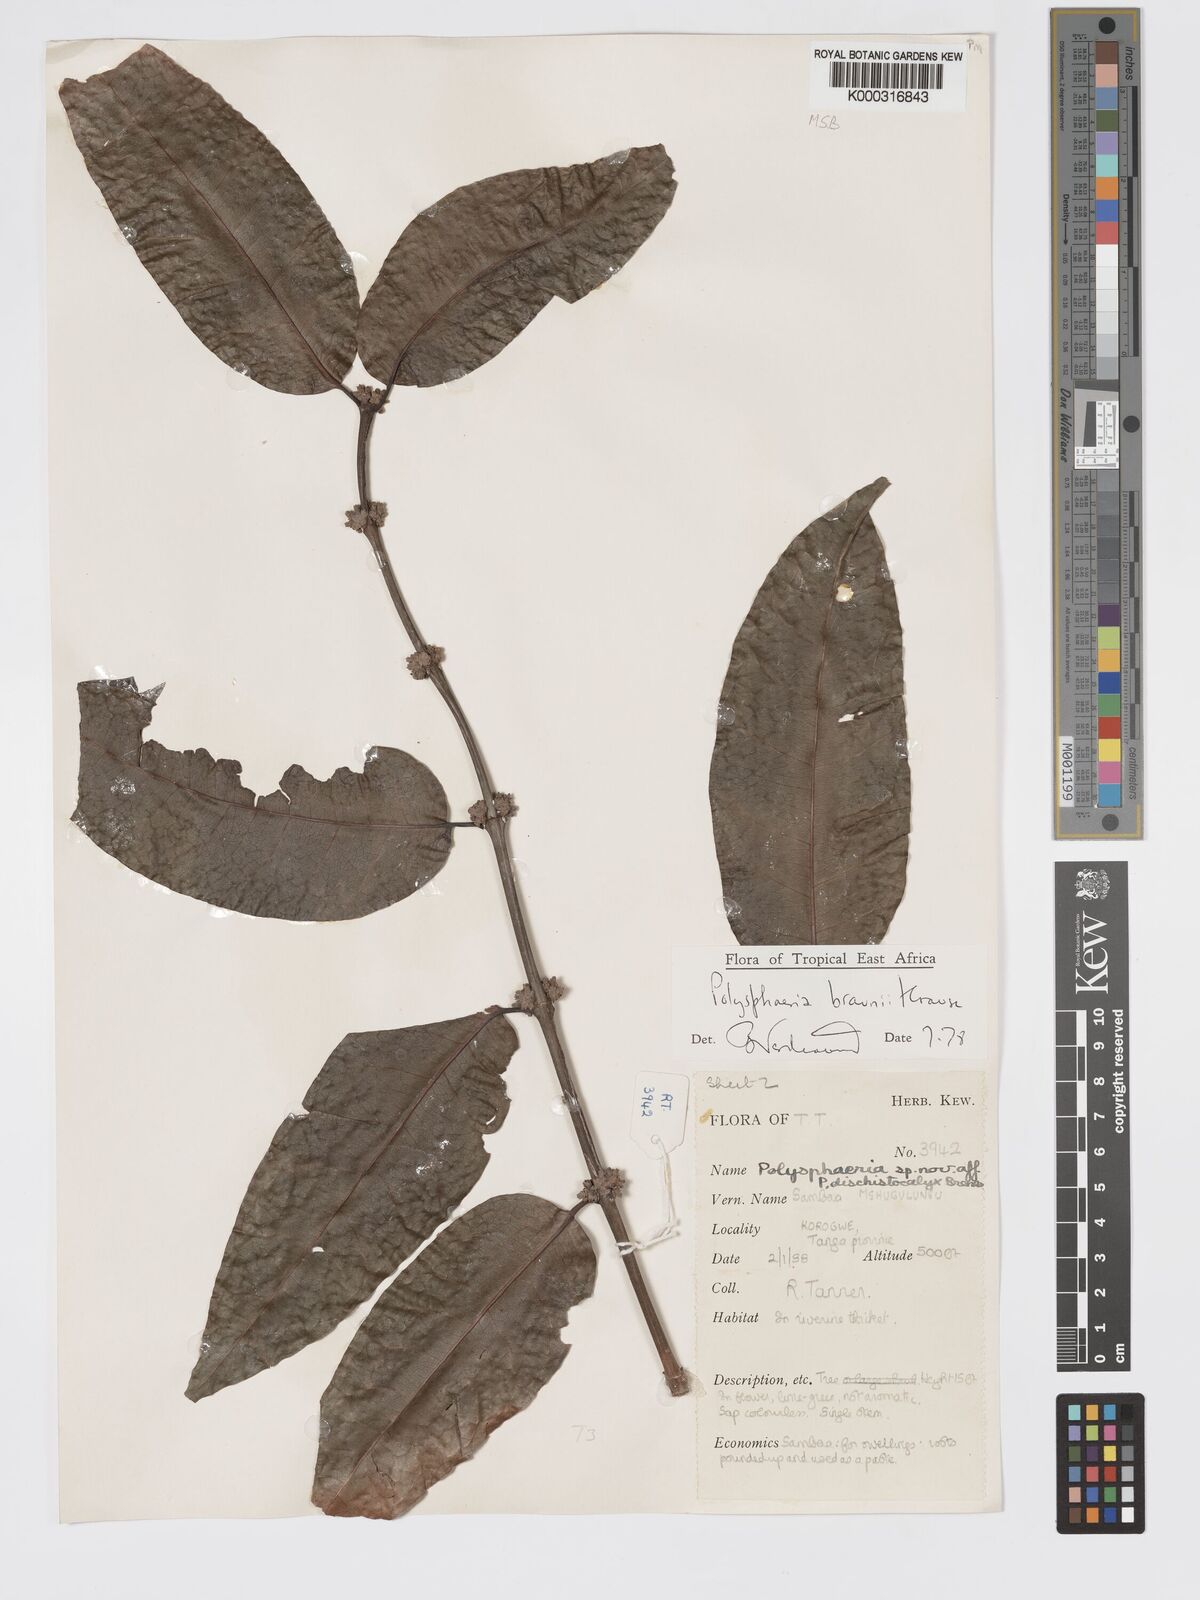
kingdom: Plantae
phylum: Tracheophyta
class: Magnoliopsida
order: Gentianales
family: Rubiaceae
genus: Polysphaeria
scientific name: Polysphaeria braunii
